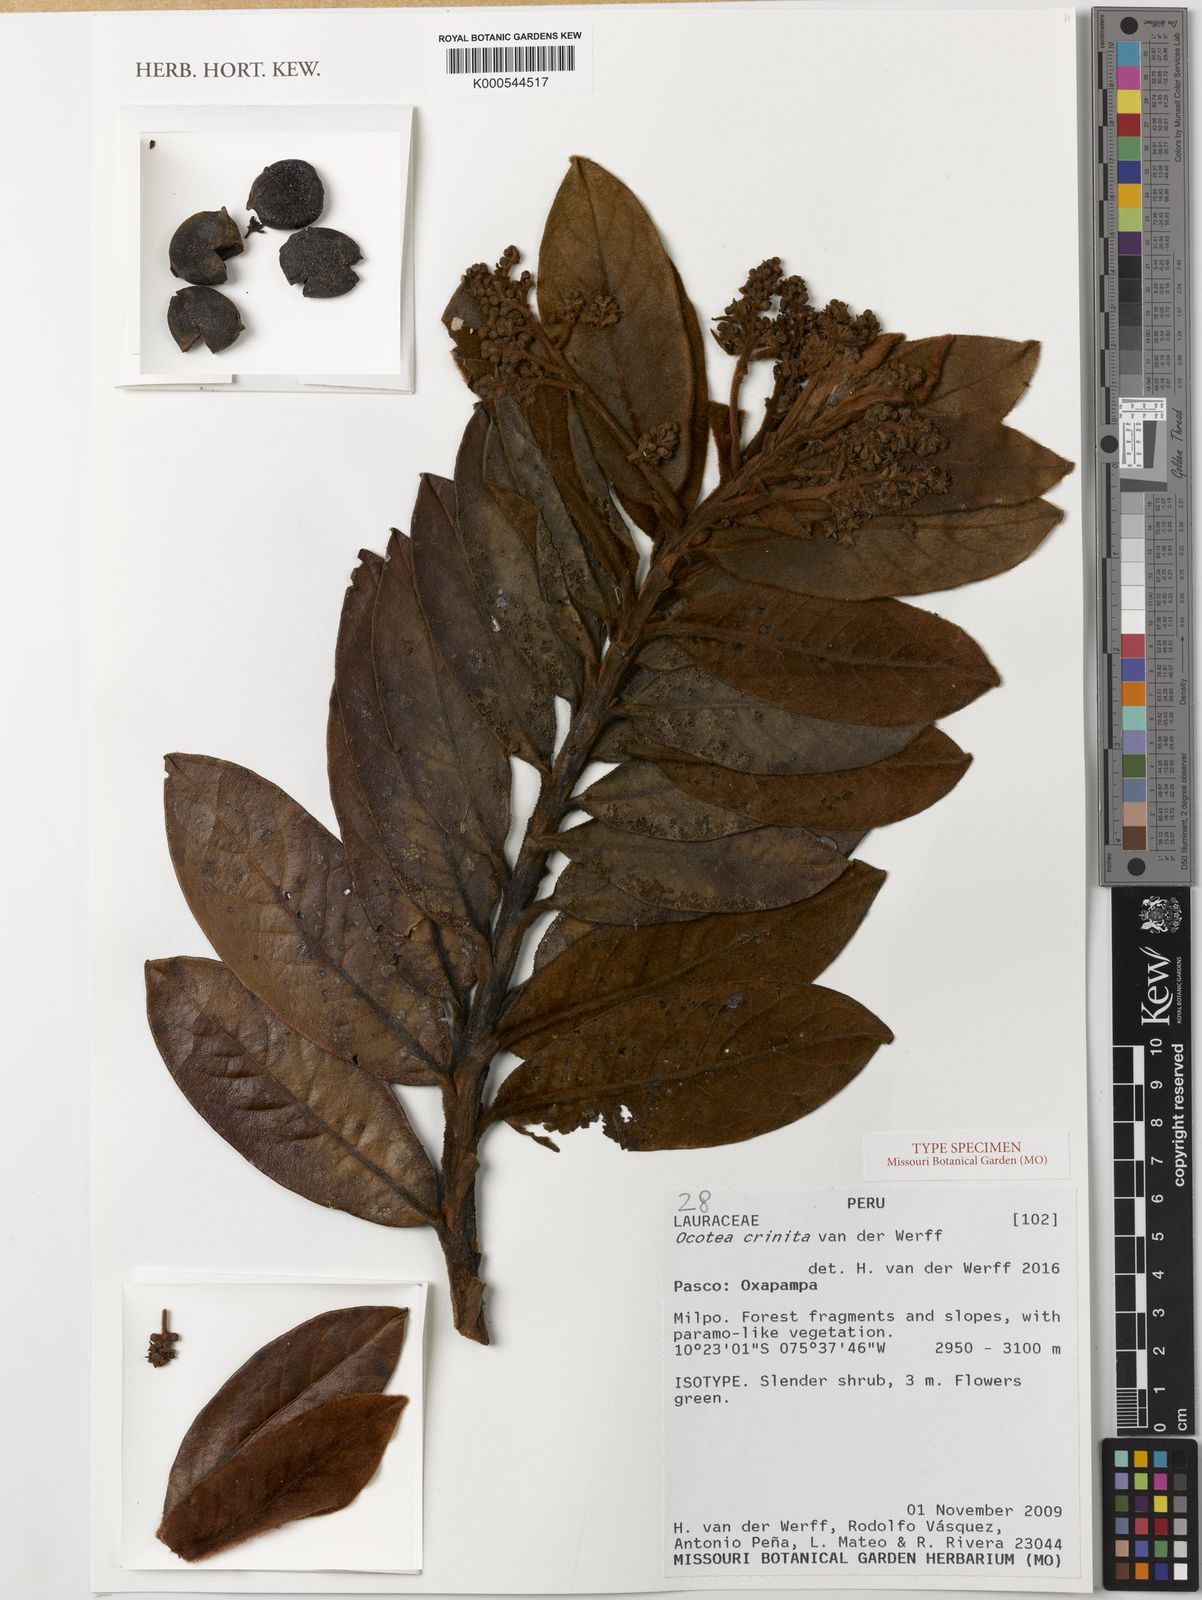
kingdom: Plantae
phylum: Tracheophyta
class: Magnoliopsida
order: Laurales
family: Lauraceae
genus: Andea
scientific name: Andea crinita
